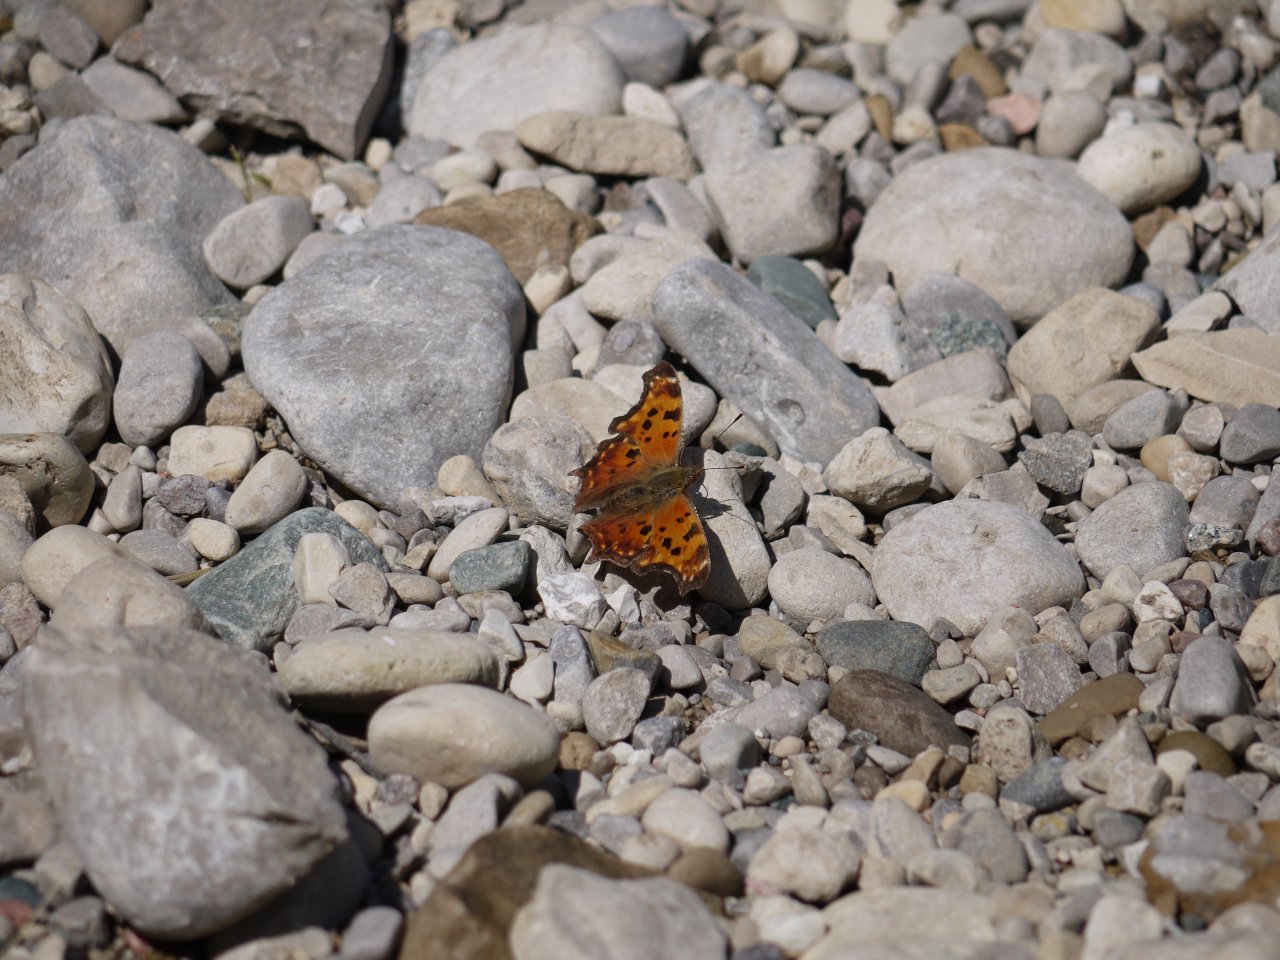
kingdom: Animalia
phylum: Arthropoda
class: Insecta
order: Lepidoptera
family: Nymphalidae
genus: Polygonia
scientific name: Polygonia comma
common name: Eastern Comma
